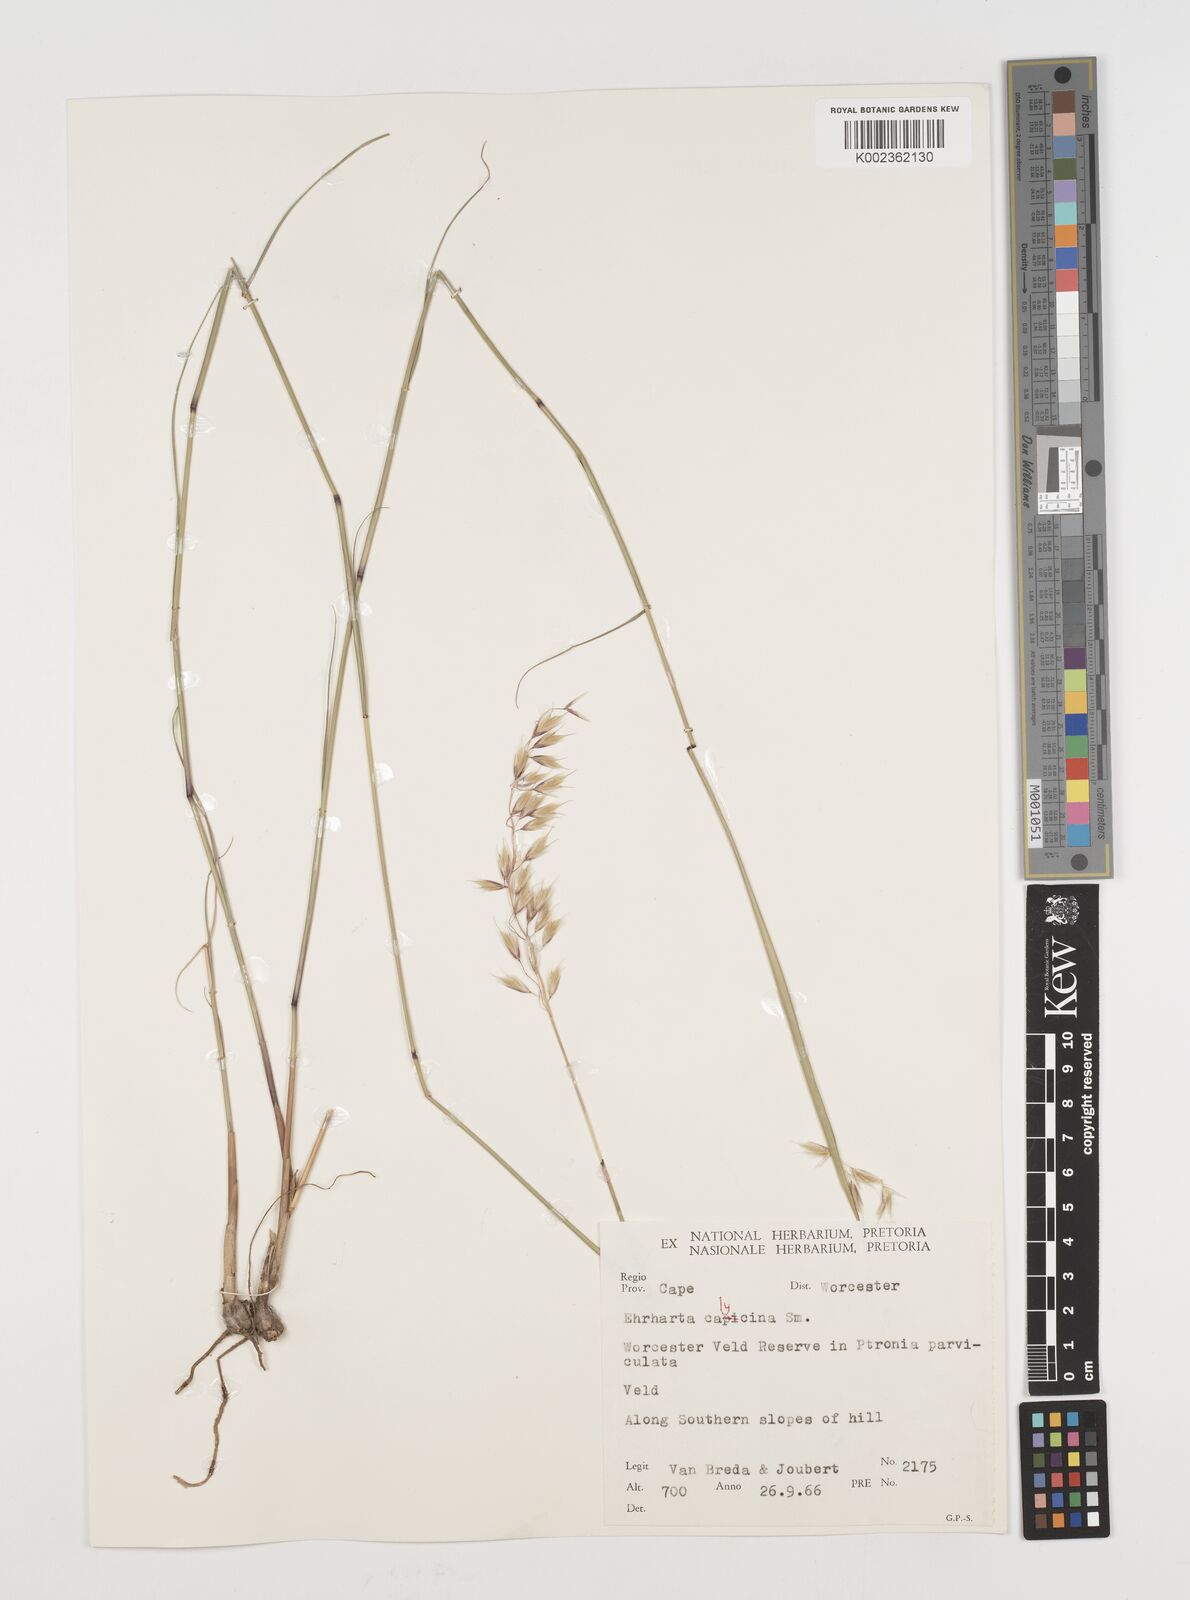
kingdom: Plantae
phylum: Tracheophyta
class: Liliopsida
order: Poales
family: Poaceae
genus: Ehrharta
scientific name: Ehrharta thunbergii
